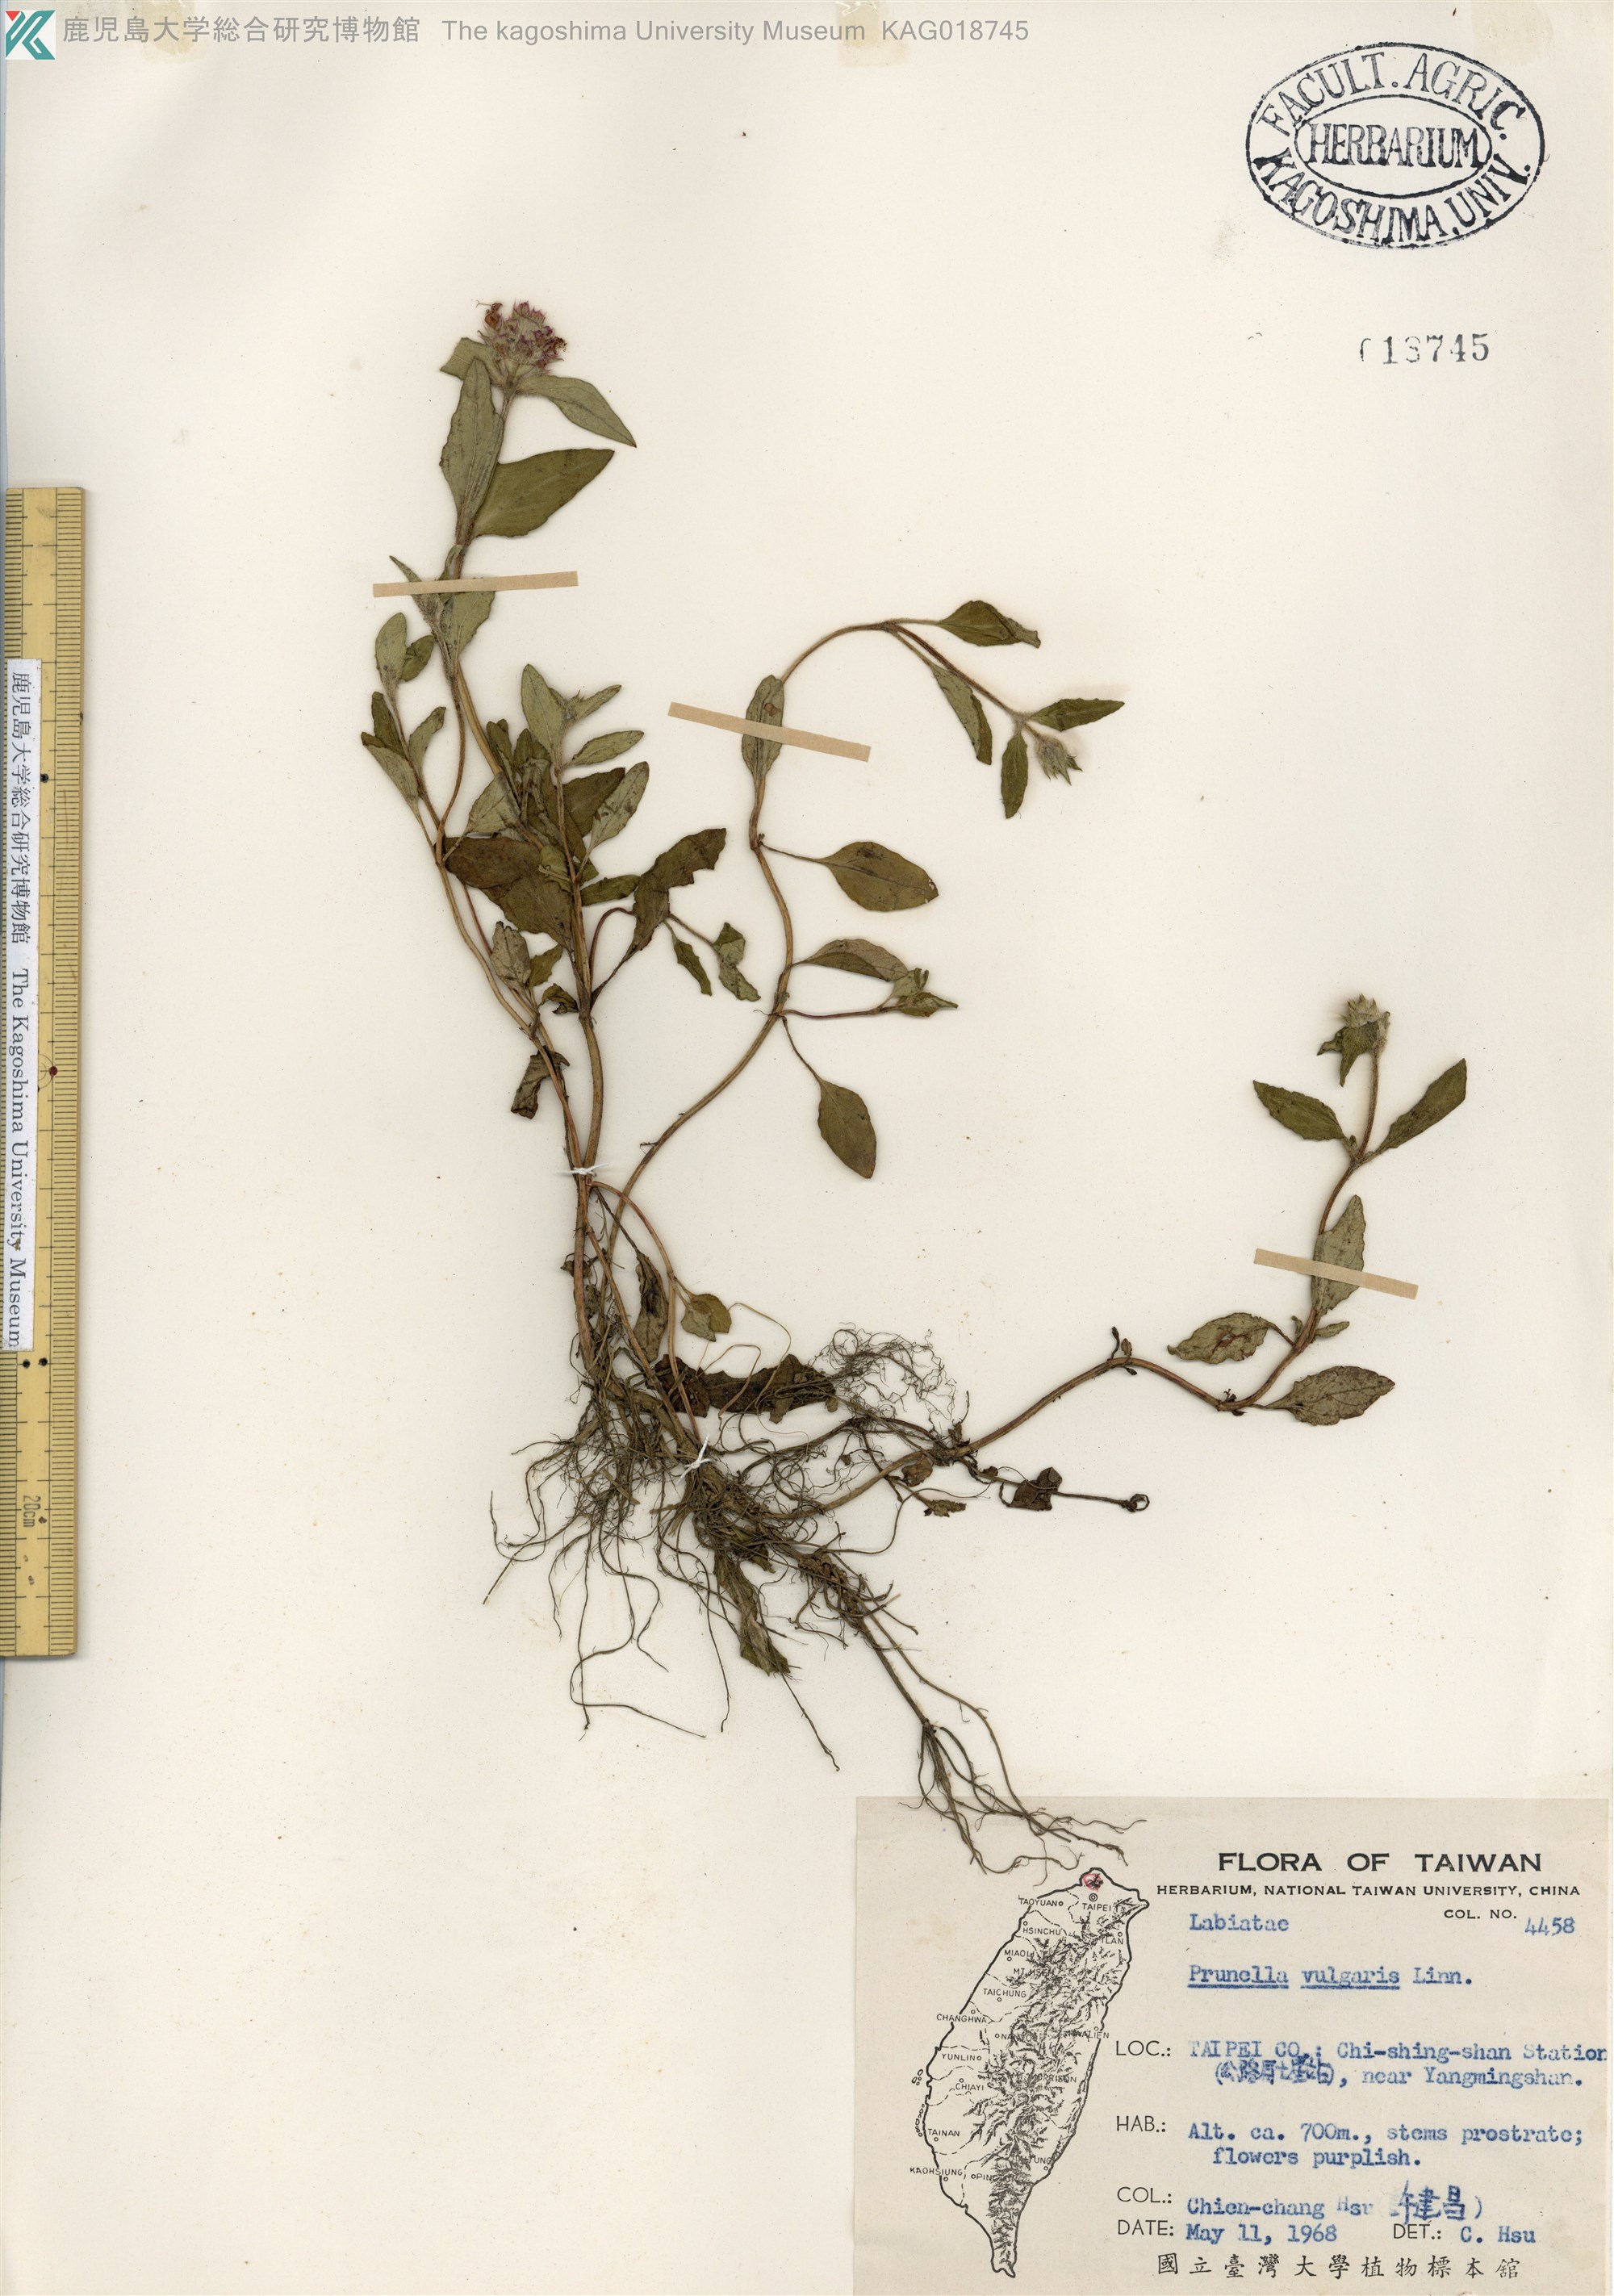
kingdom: Plantae
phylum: Tracheophyta
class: Magnoliopsida
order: Lamiales
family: Lamiaceae
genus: Prunella
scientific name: Prunella vulgaris
